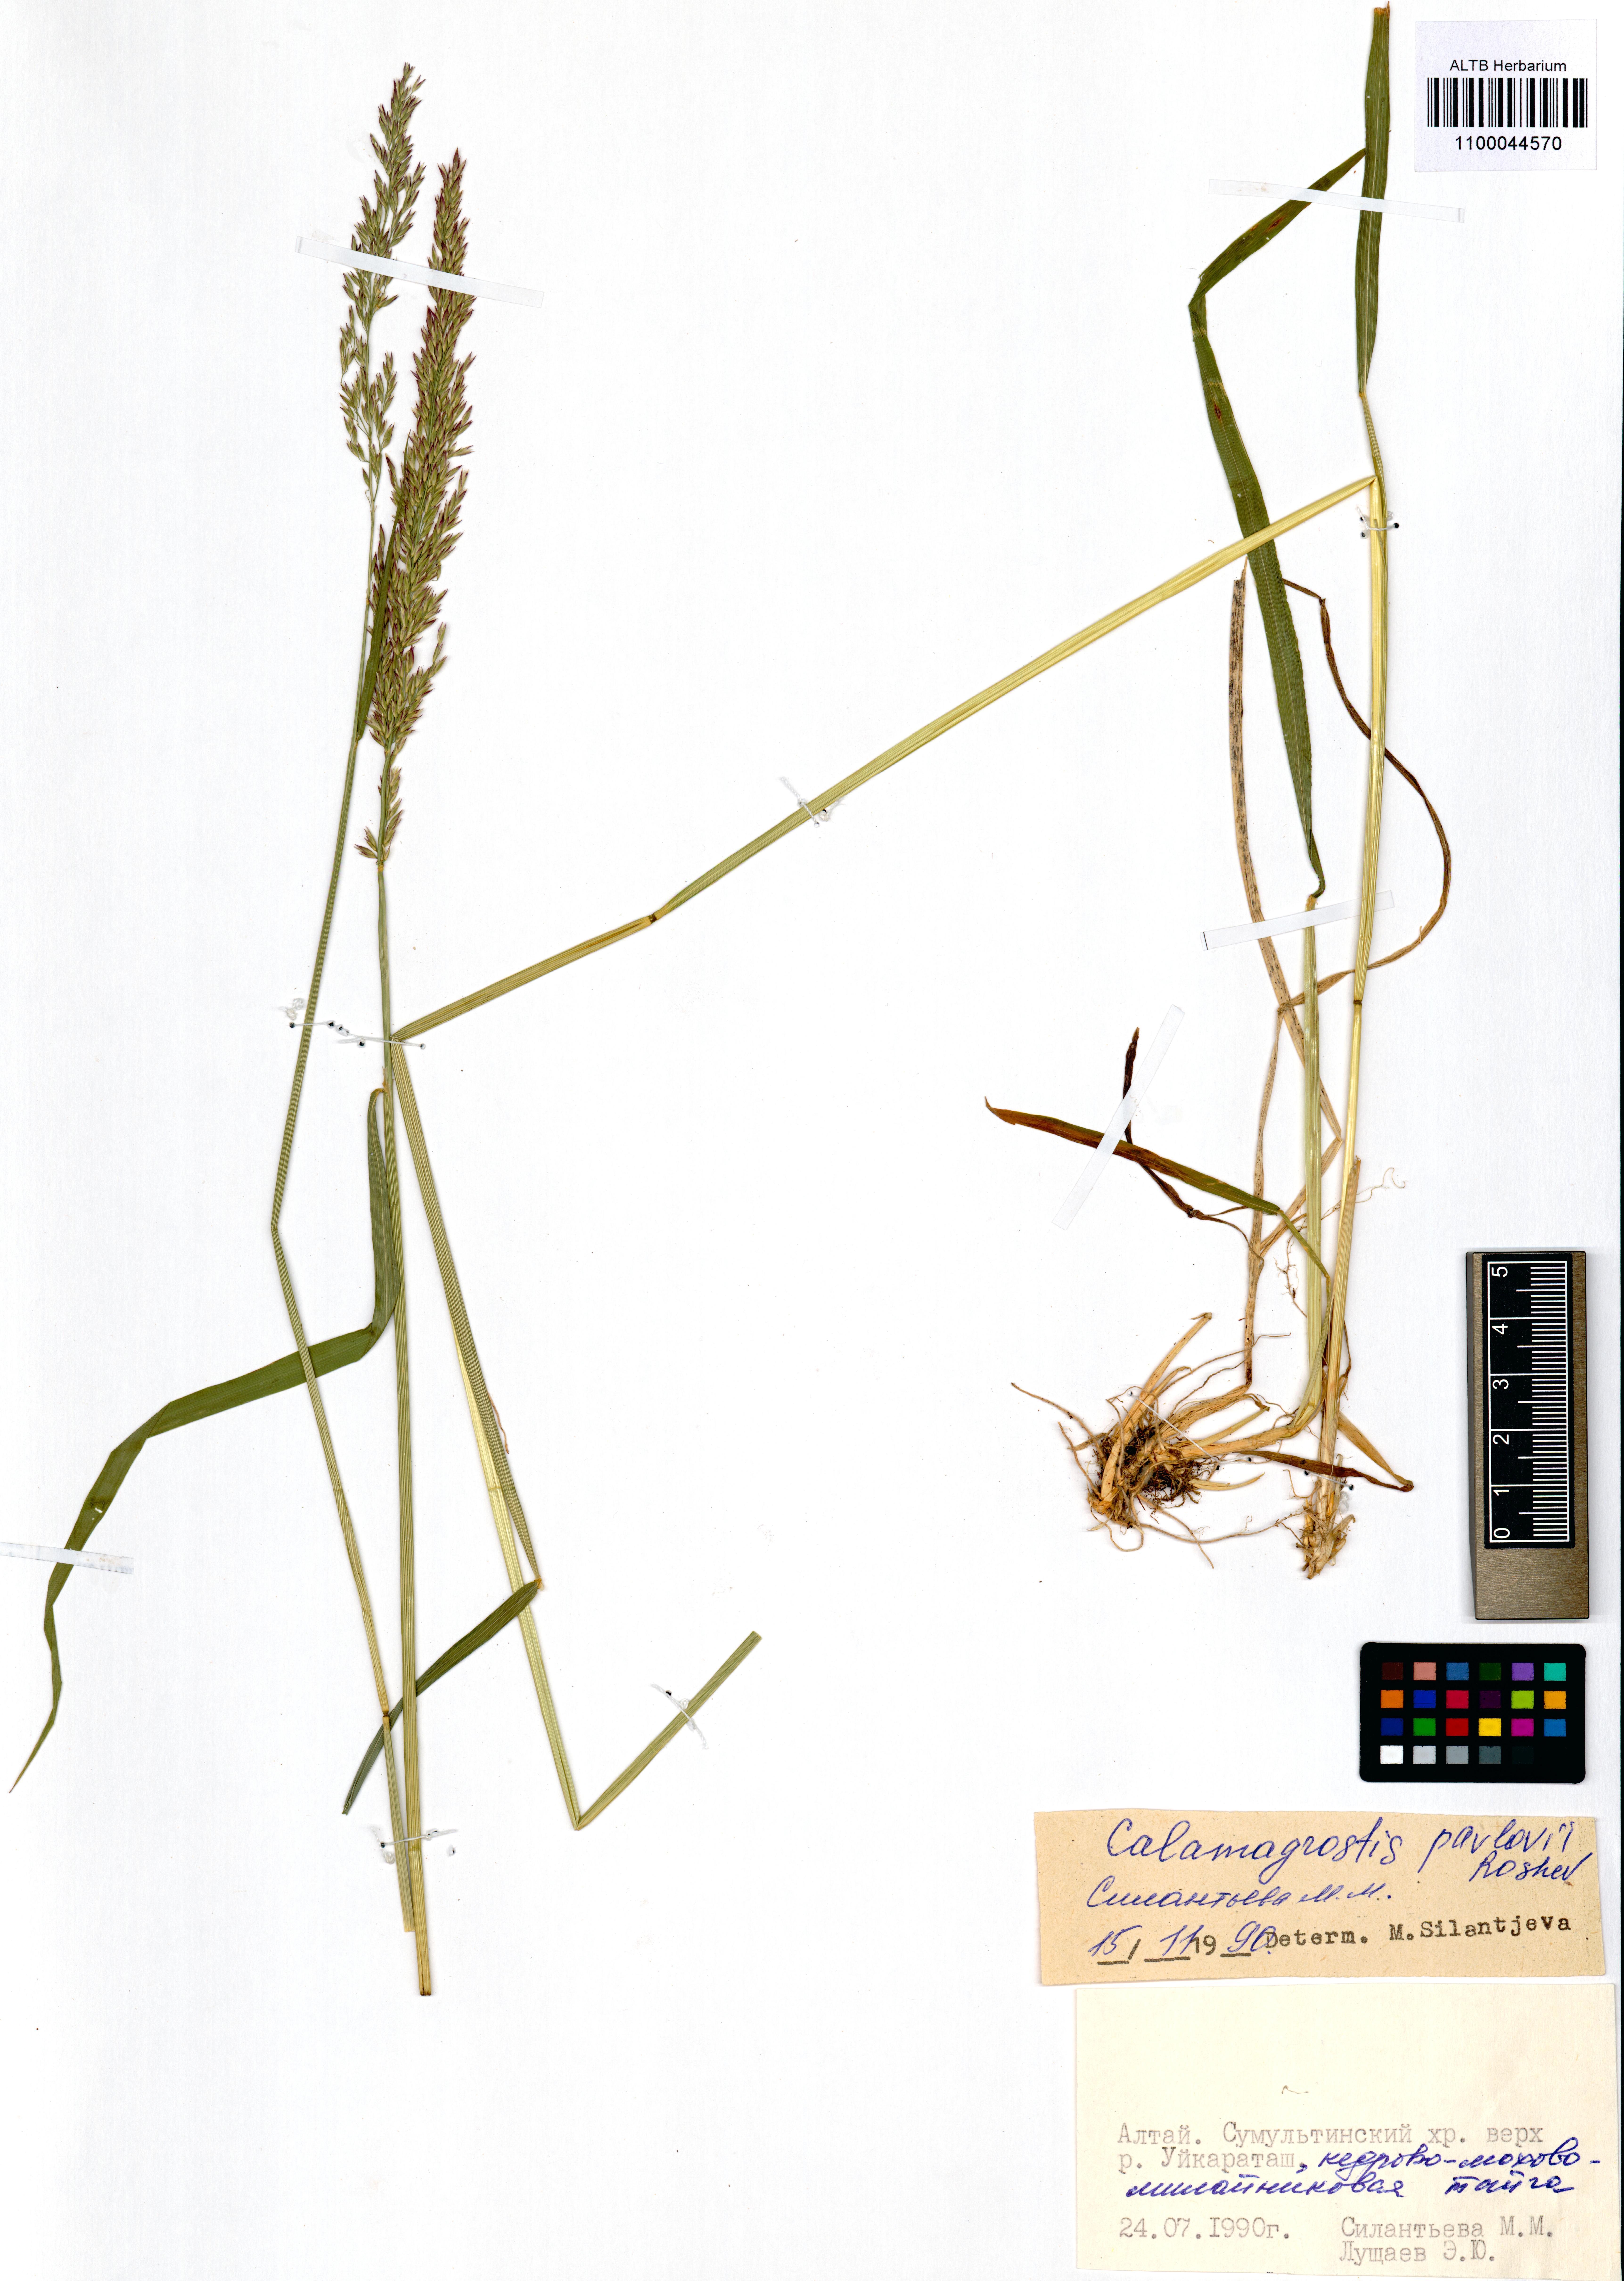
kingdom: Plantae
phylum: Tracheophyta
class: Liliopsida
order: Poales
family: Poaceae
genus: Calamagrostis
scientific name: Calamagrostis pavlovii
